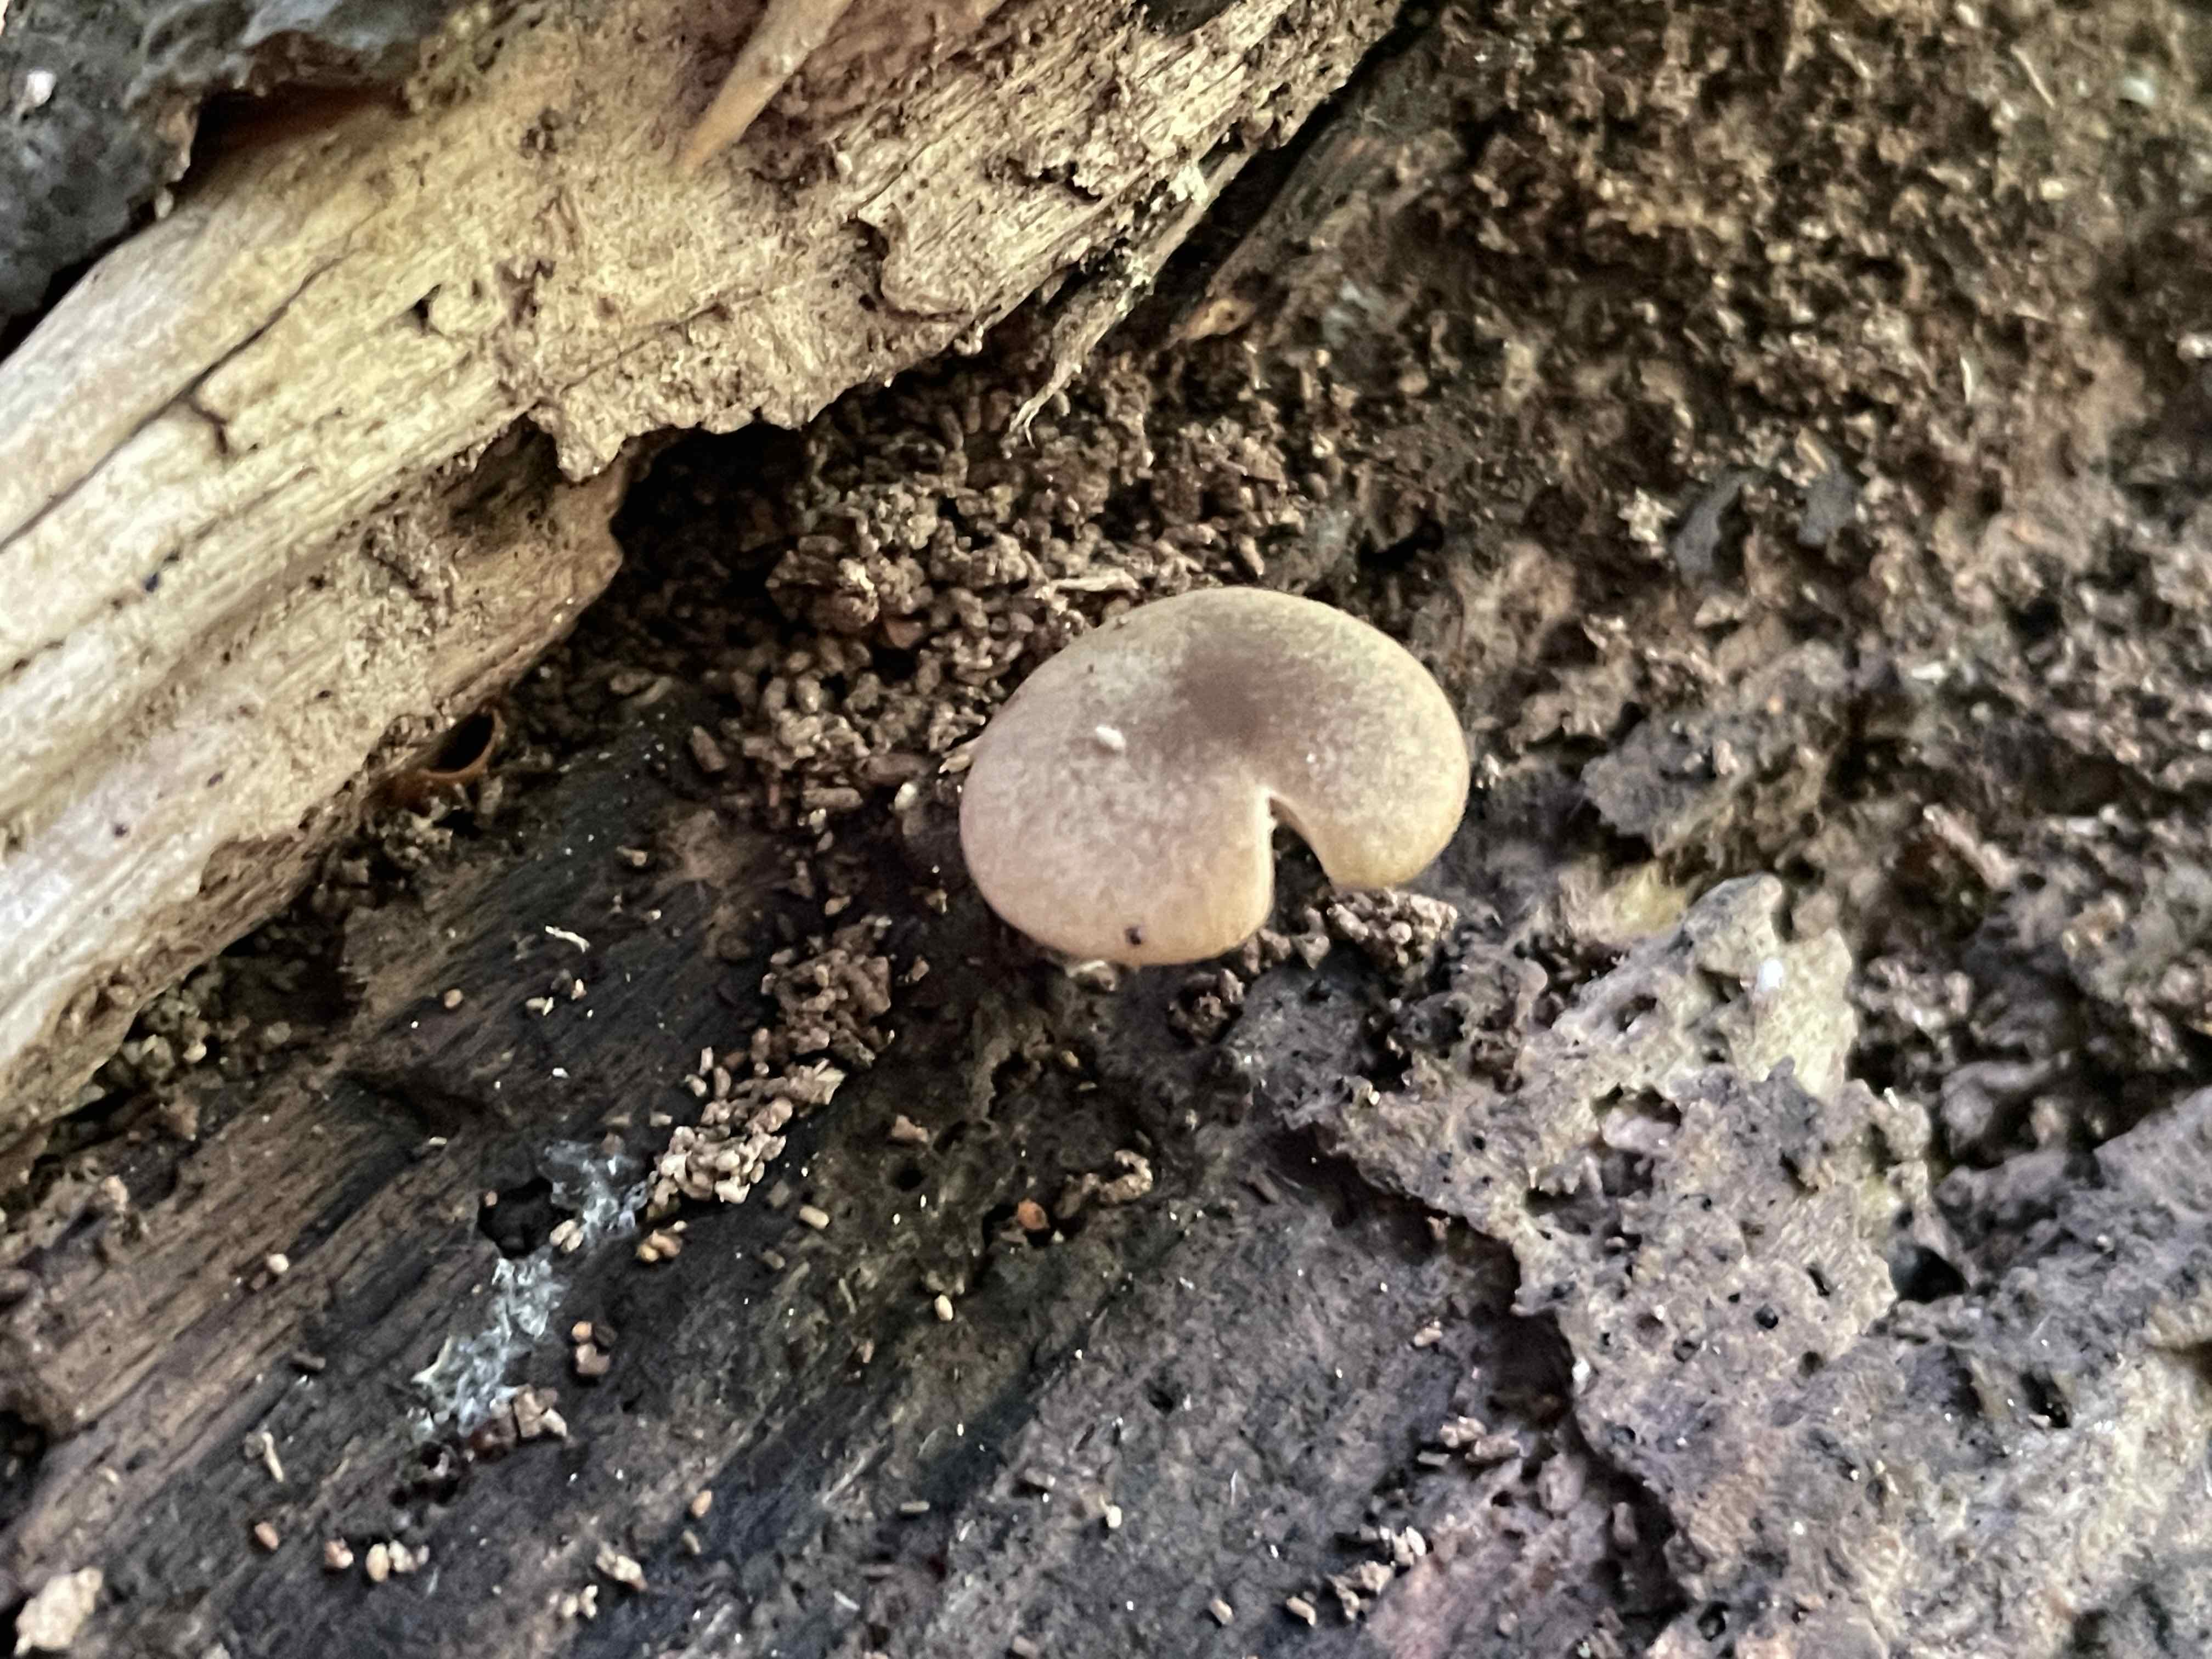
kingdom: Fungi
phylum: Basidiomycota
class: Agaricomycetes
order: Agaricales
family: Crepidotaceae
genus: Simocybe
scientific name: Simocybe centunculus
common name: enlig skyggehat
